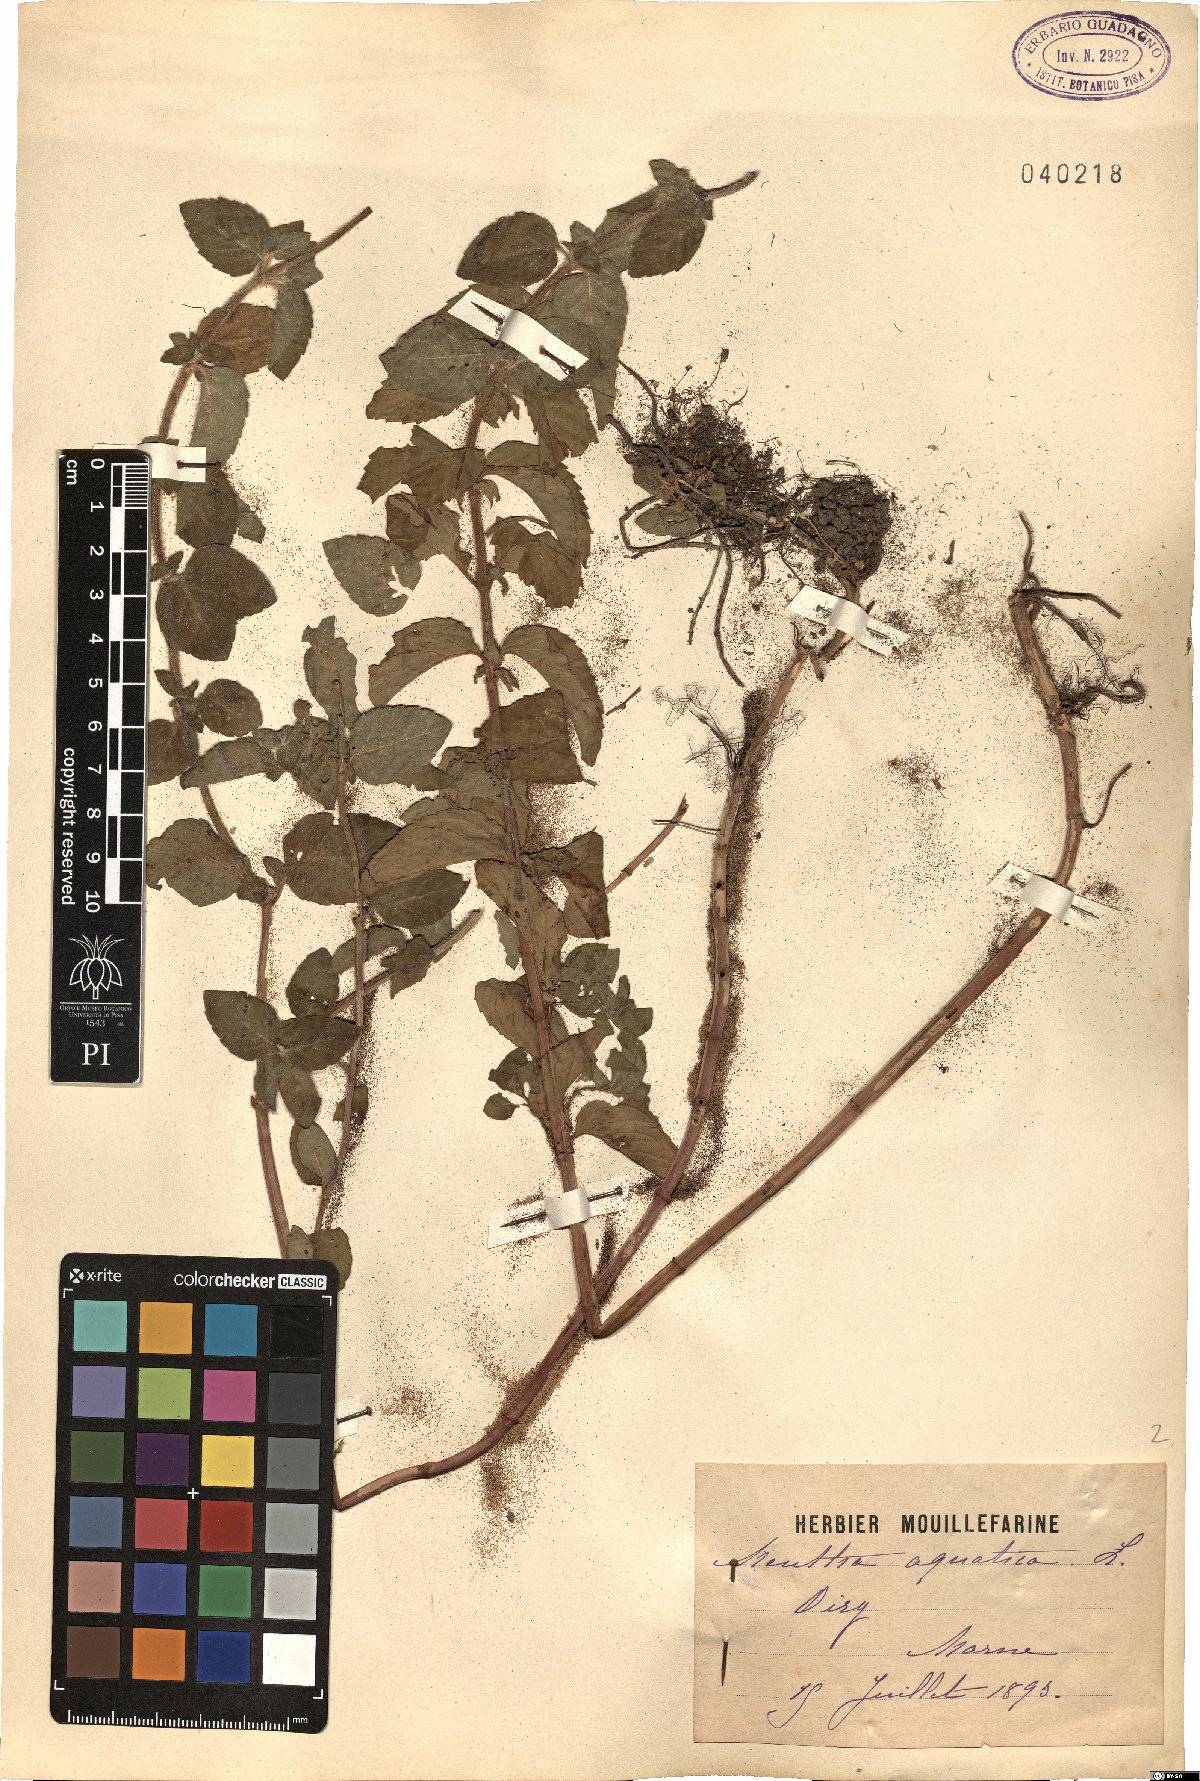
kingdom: Plantae
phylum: Tracheophyta
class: Magnoliopsida
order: Lamiales
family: Lamiaceae
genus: Mentha
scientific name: Mentha aquatica
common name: Water mint
